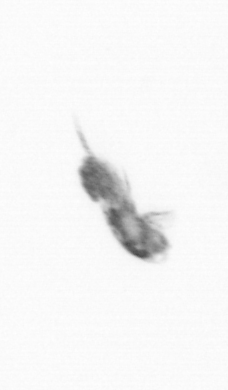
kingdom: Animalia
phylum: Arthropoda
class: Copepoda
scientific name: Copepoda
